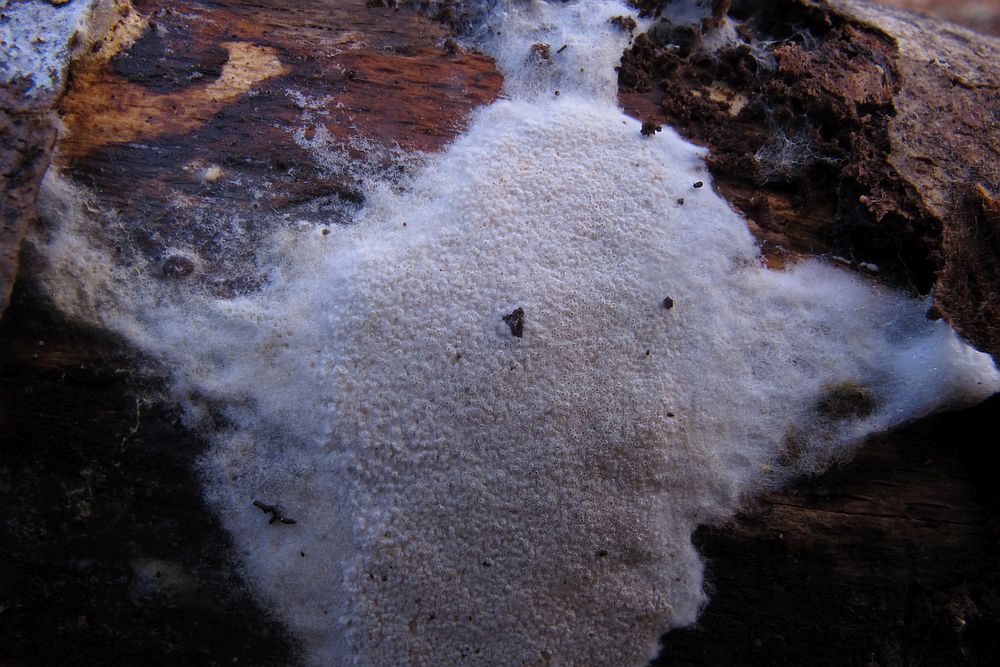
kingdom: Fungi
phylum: Ascomycota
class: Sordariomycetes
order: Hypocreales
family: Hypocreaceae
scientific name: Hypocreaceae
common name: kødkernefamilien
